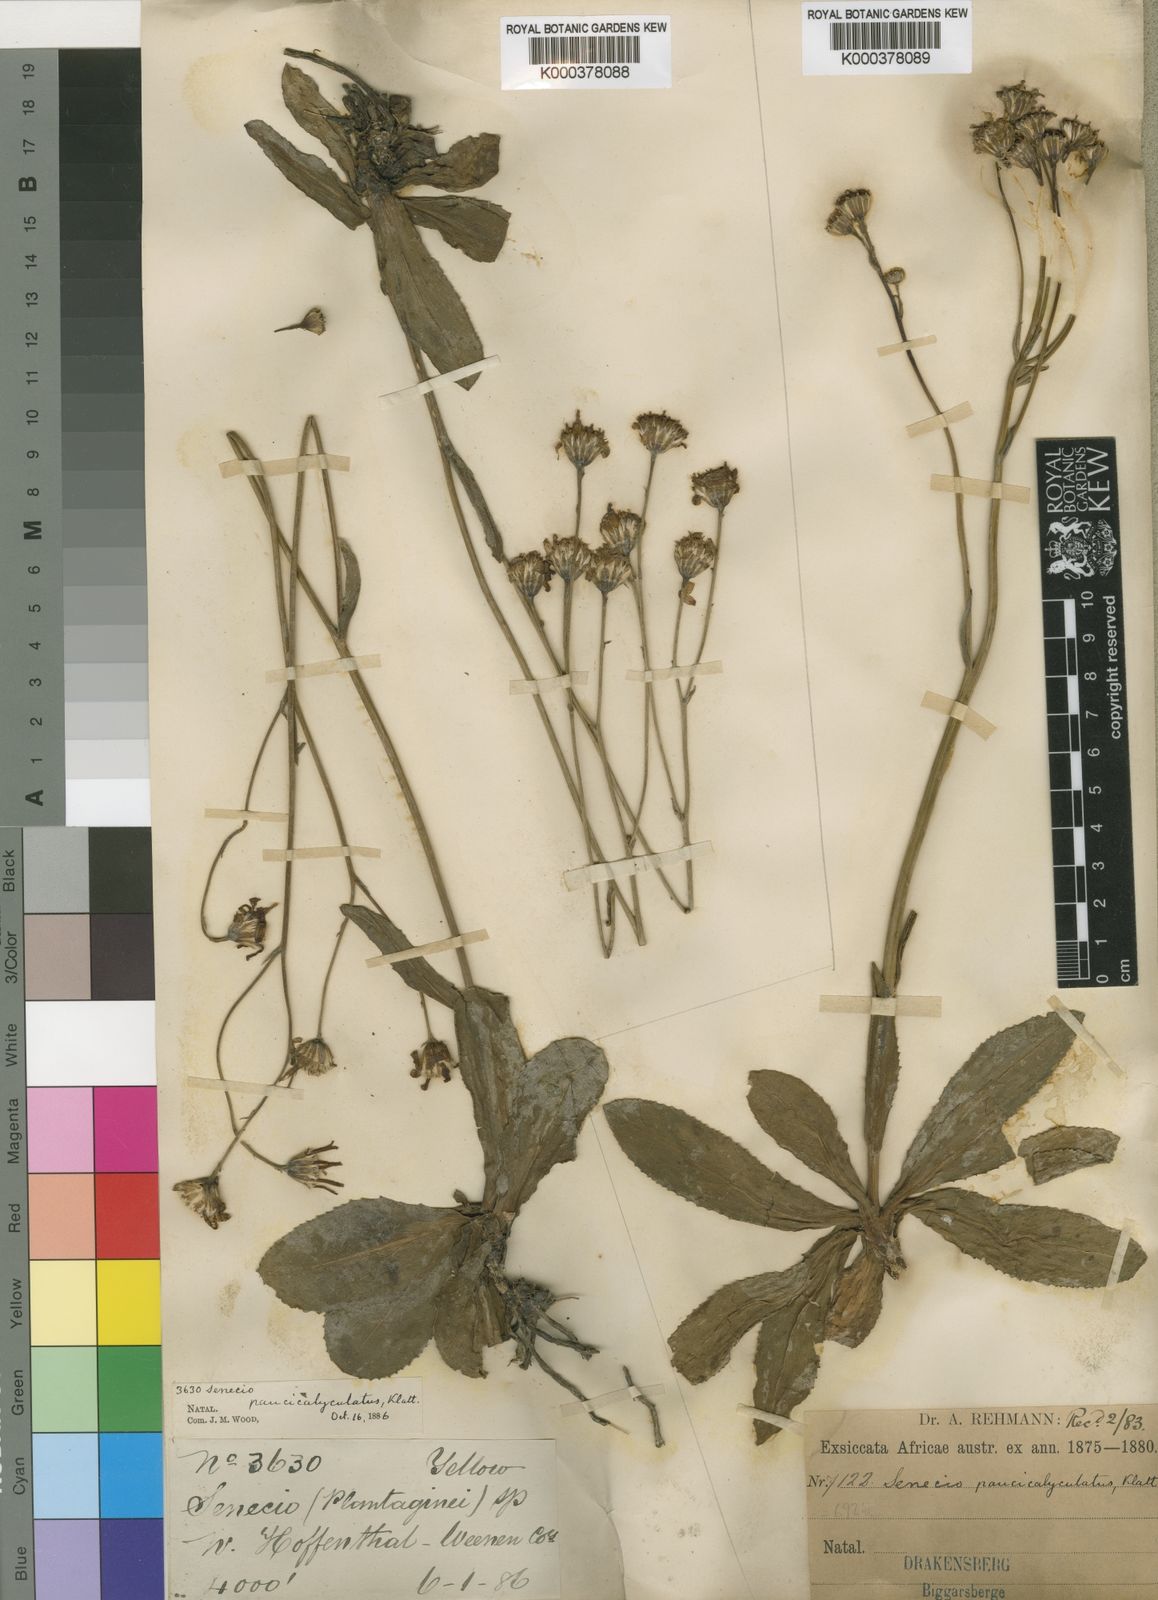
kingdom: Plantae
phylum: Tracheophyta
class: Magnoliopsida
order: Asterales
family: Asteraceae
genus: Senecio
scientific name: Senecio paucicalyculatus
